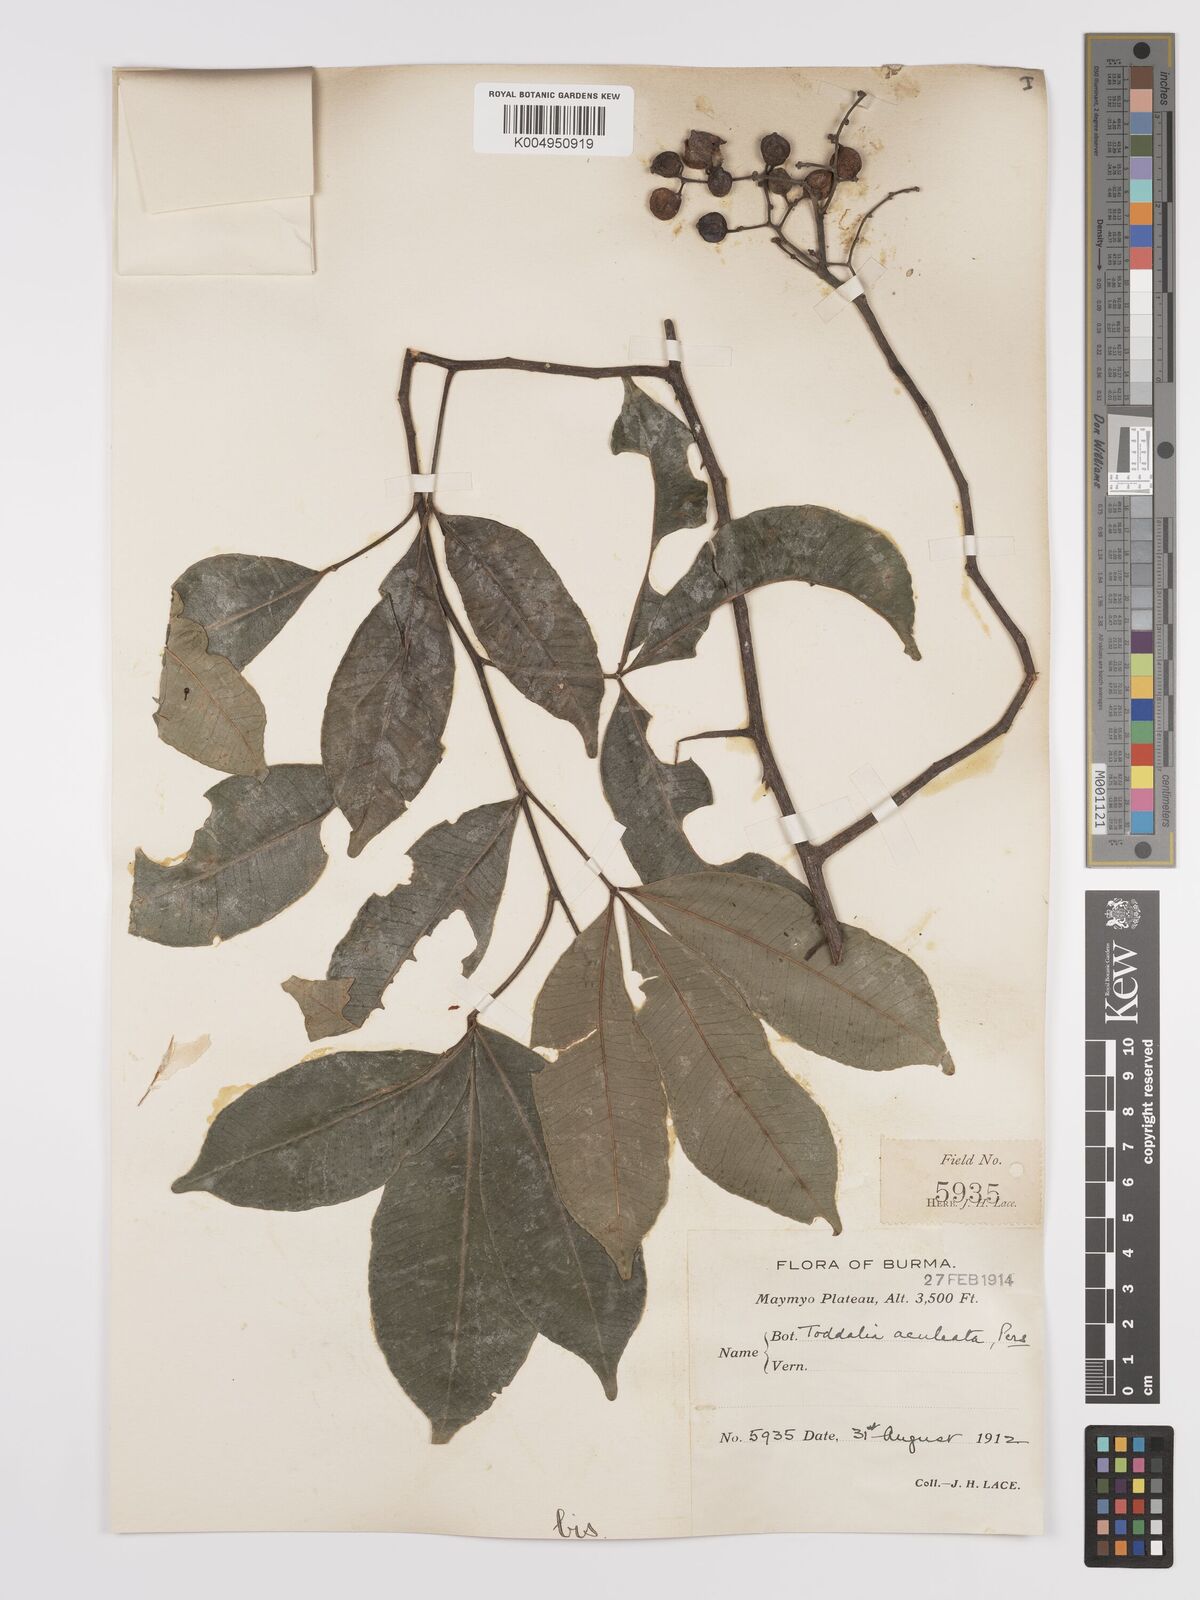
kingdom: Plantae
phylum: Tracheophyta
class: Magnoliopsida
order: Sapindales
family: Rutaceae
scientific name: Rutaceae
